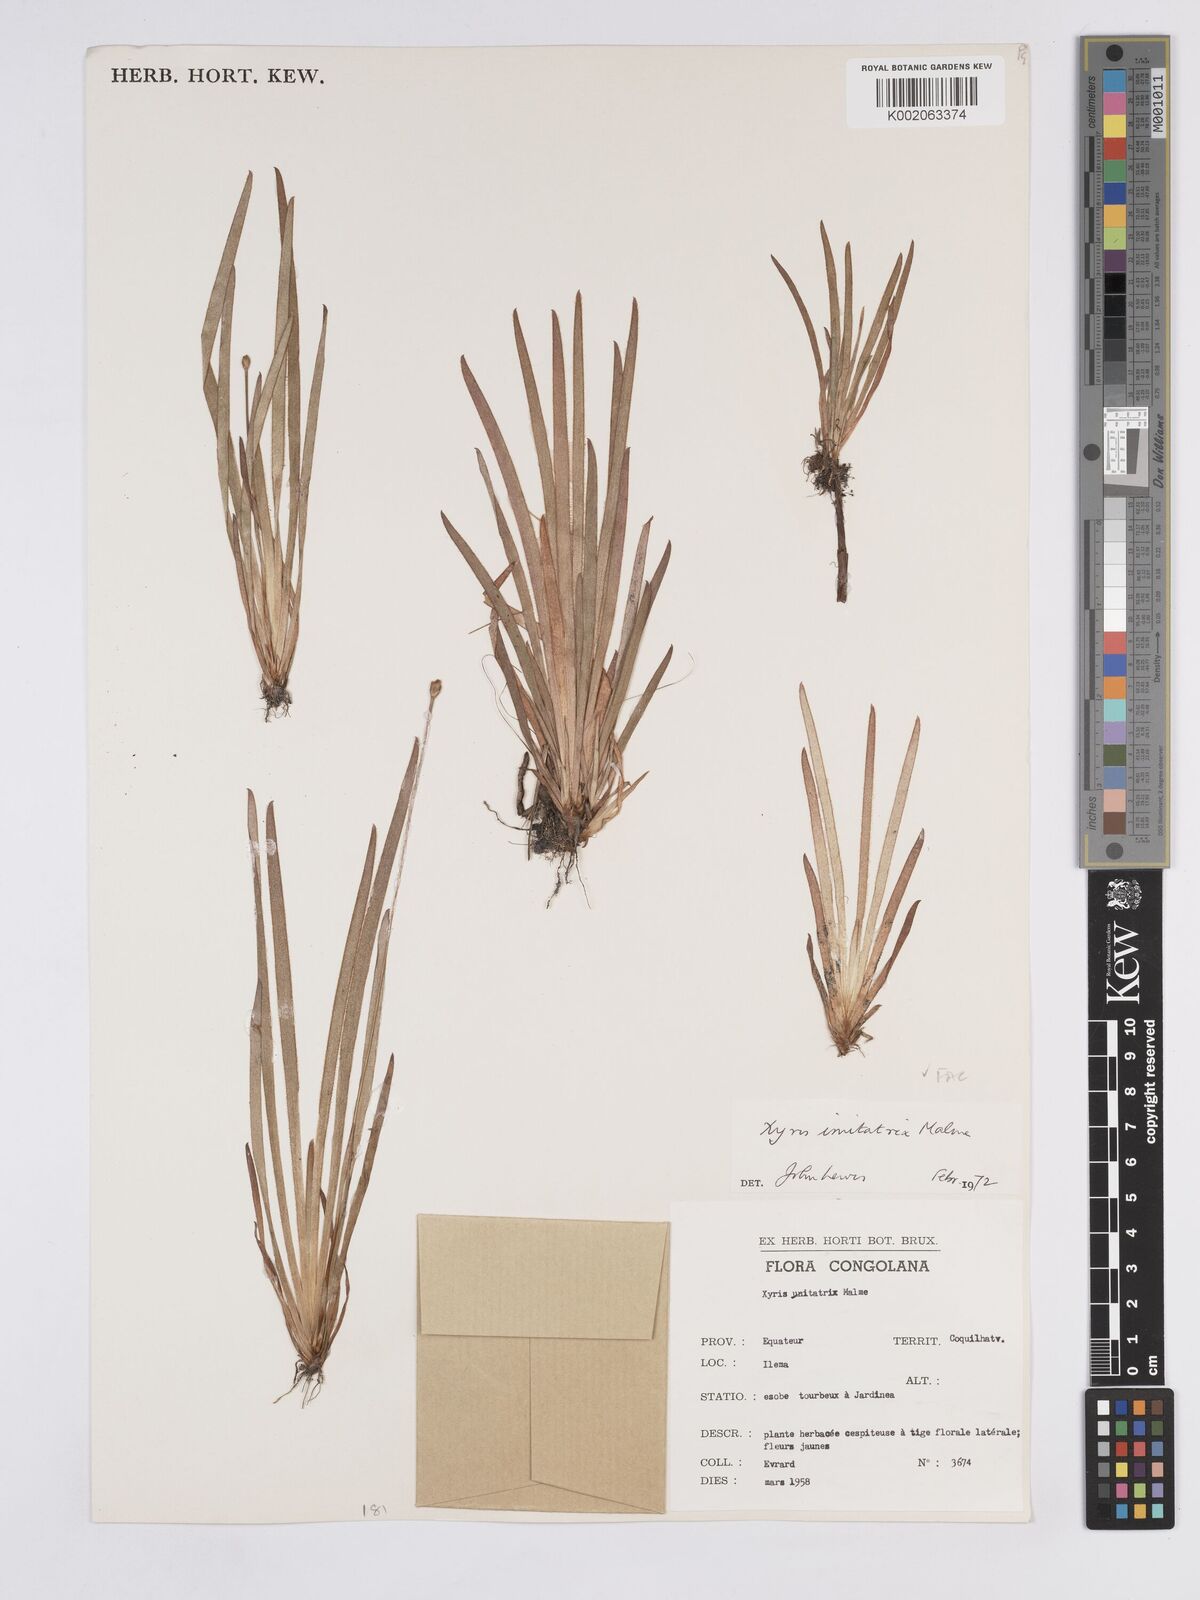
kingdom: Plantae
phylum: Tracheophyta
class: Liliopsida
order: Poales
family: Xyridaceae
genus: Xyris
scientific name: Xyris imitatrix
